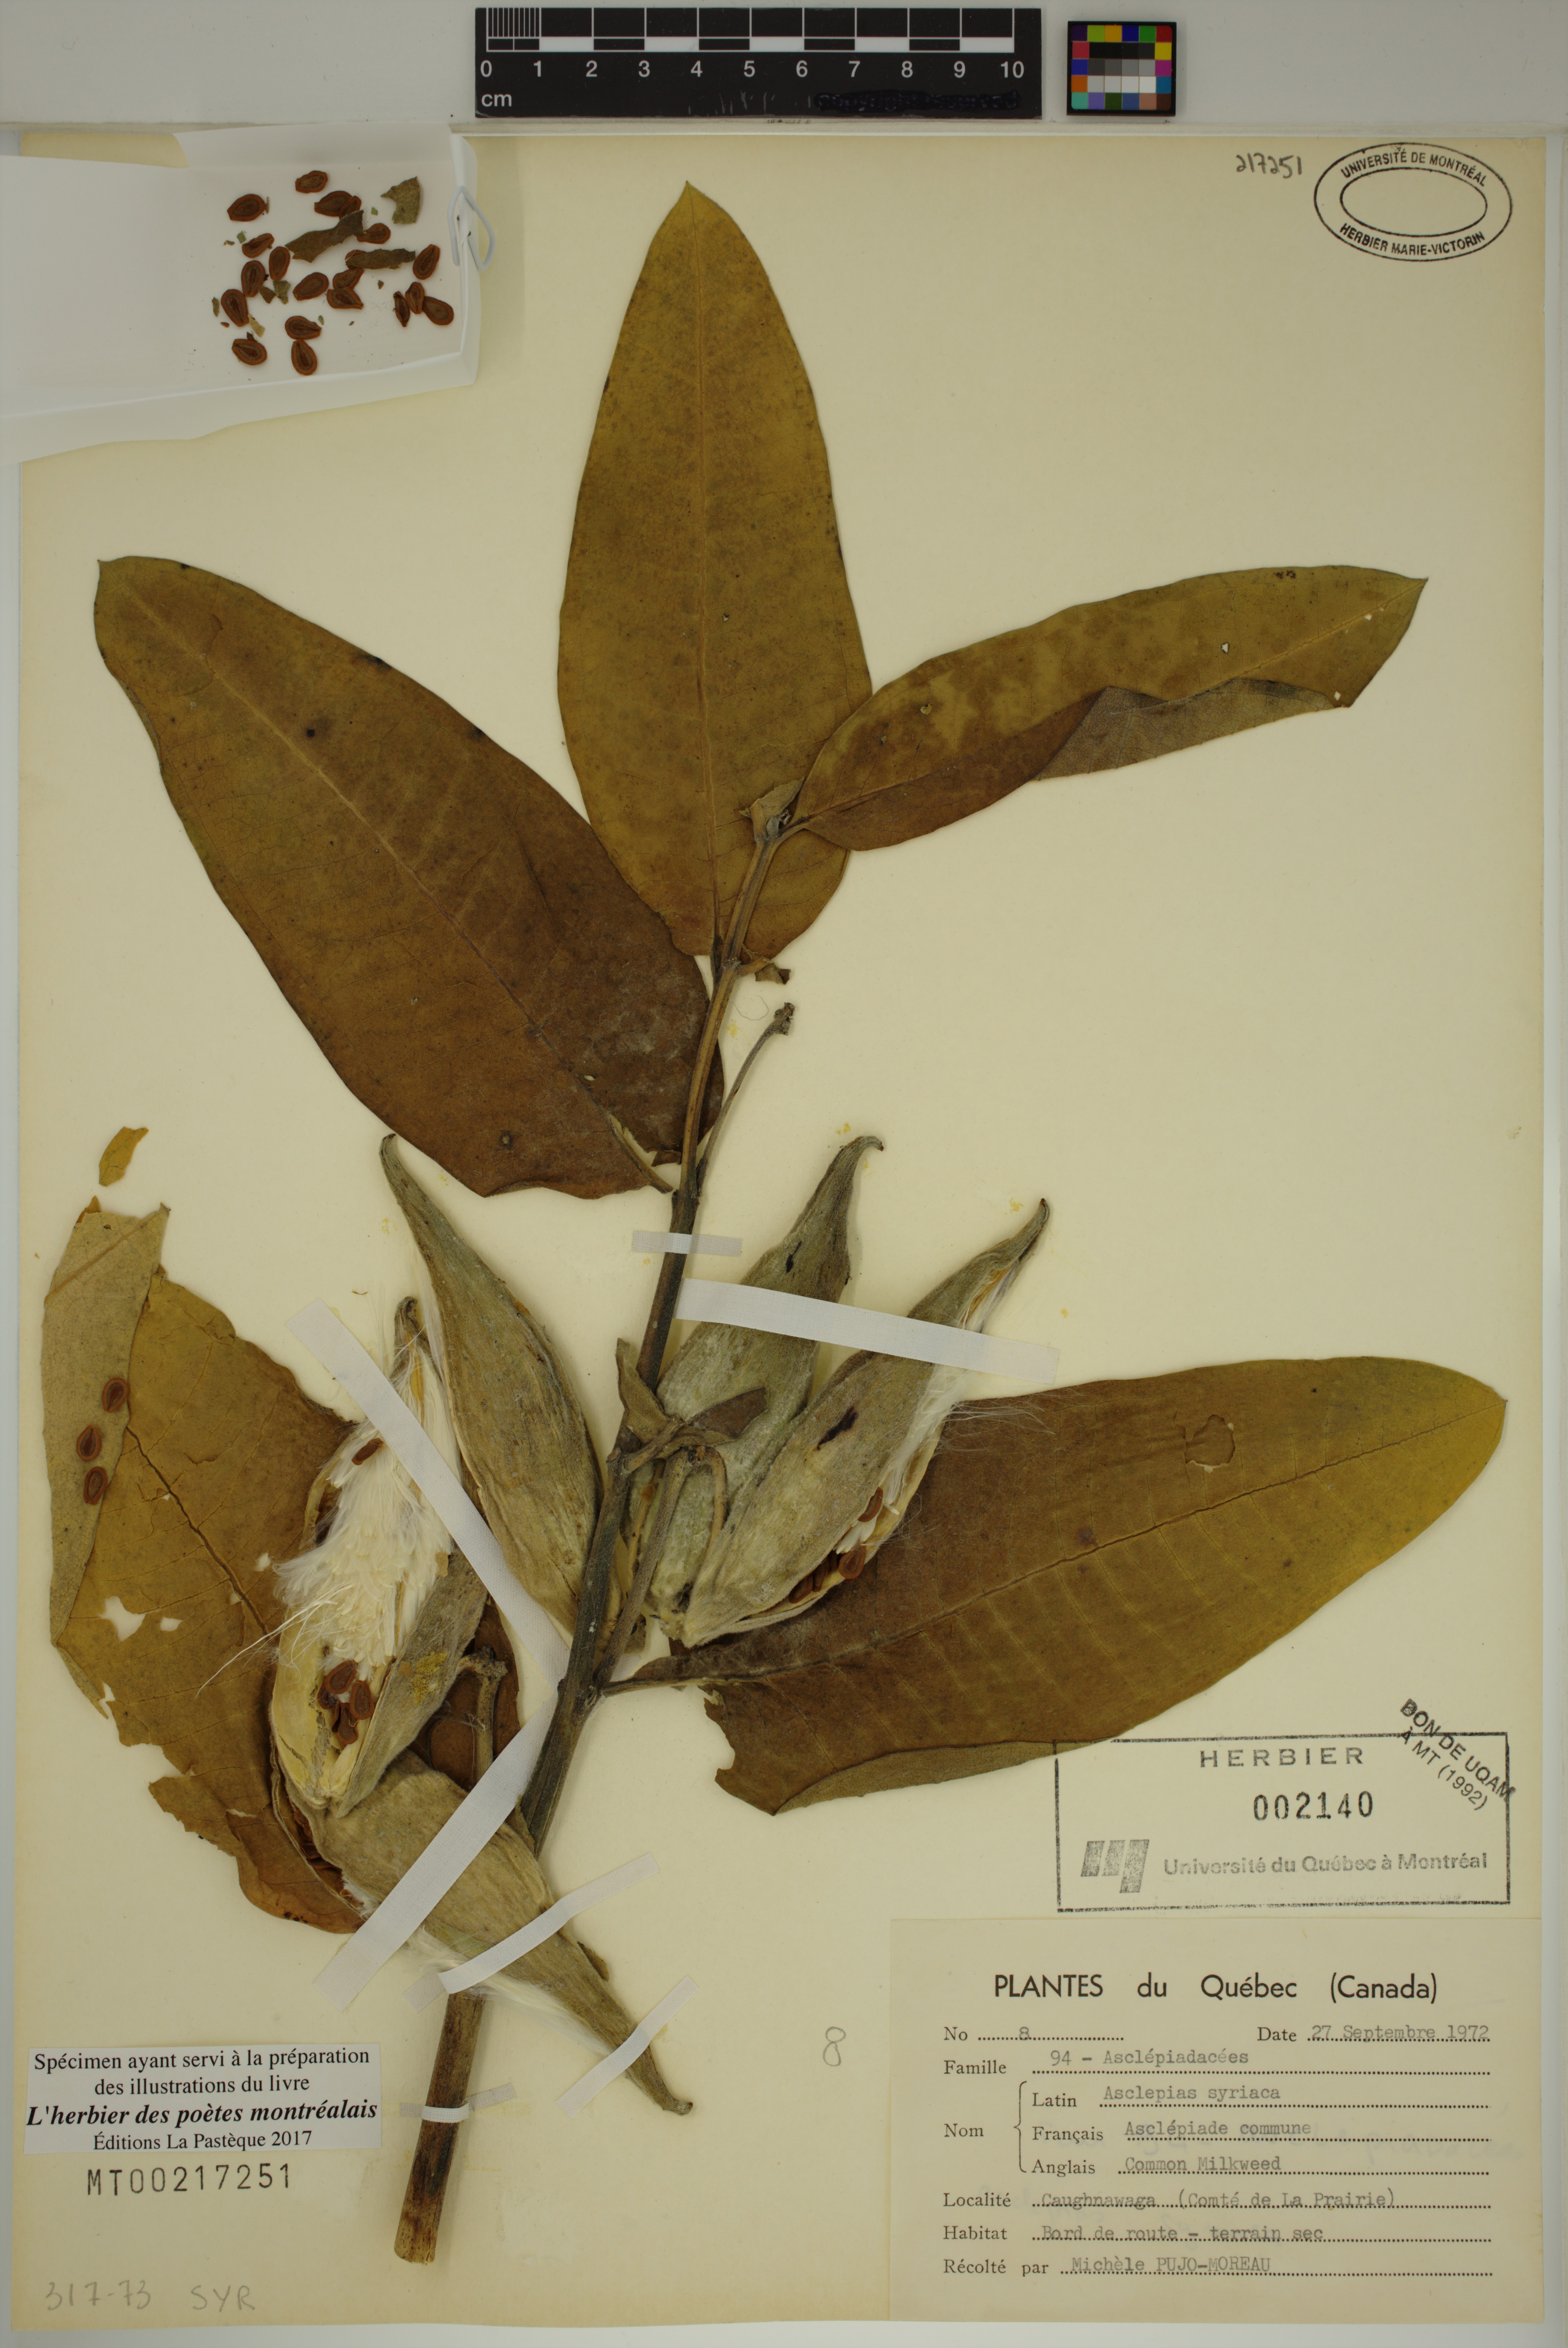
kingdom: Plantae
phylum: Tracheophyta
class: Magnoliopsida
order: Gentianales
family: Apocynaceae
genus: Asclepias
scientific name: Asclepias syriaca
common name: Common milkweed
